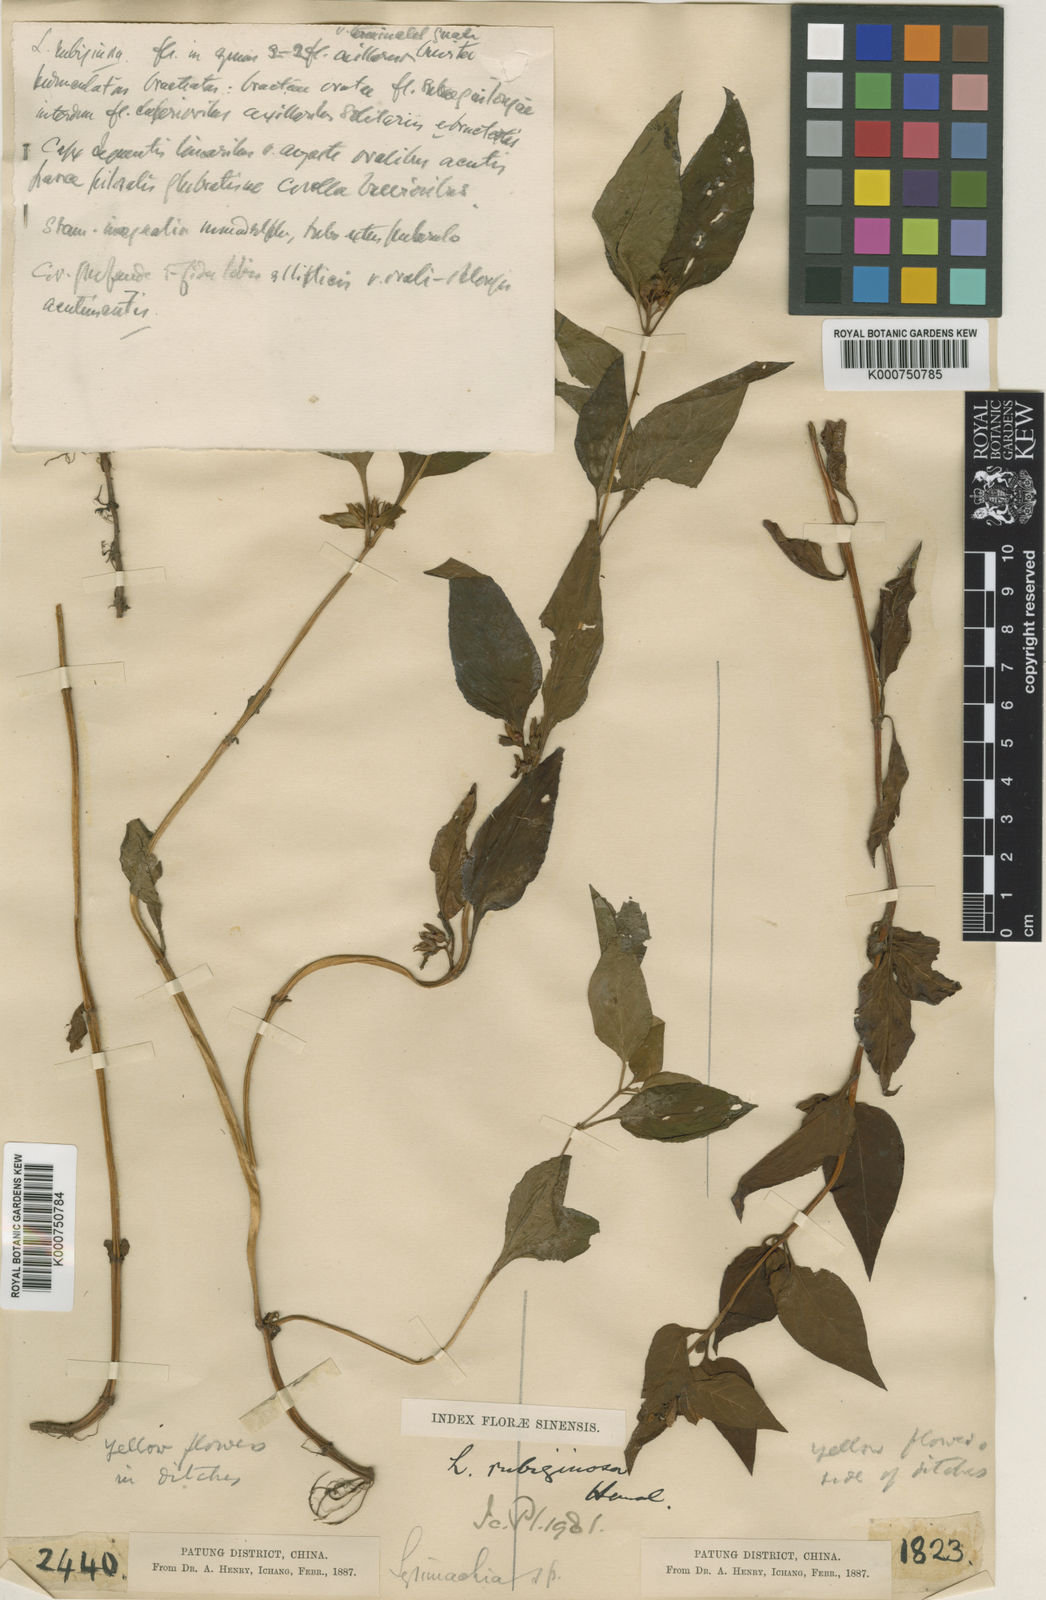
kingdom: Plantae
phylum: Tracheophyta
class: Magnoliopsida
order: Ericales
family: Primulaceae
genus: Lysimachia
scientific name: Lysimachia rubiginosa
